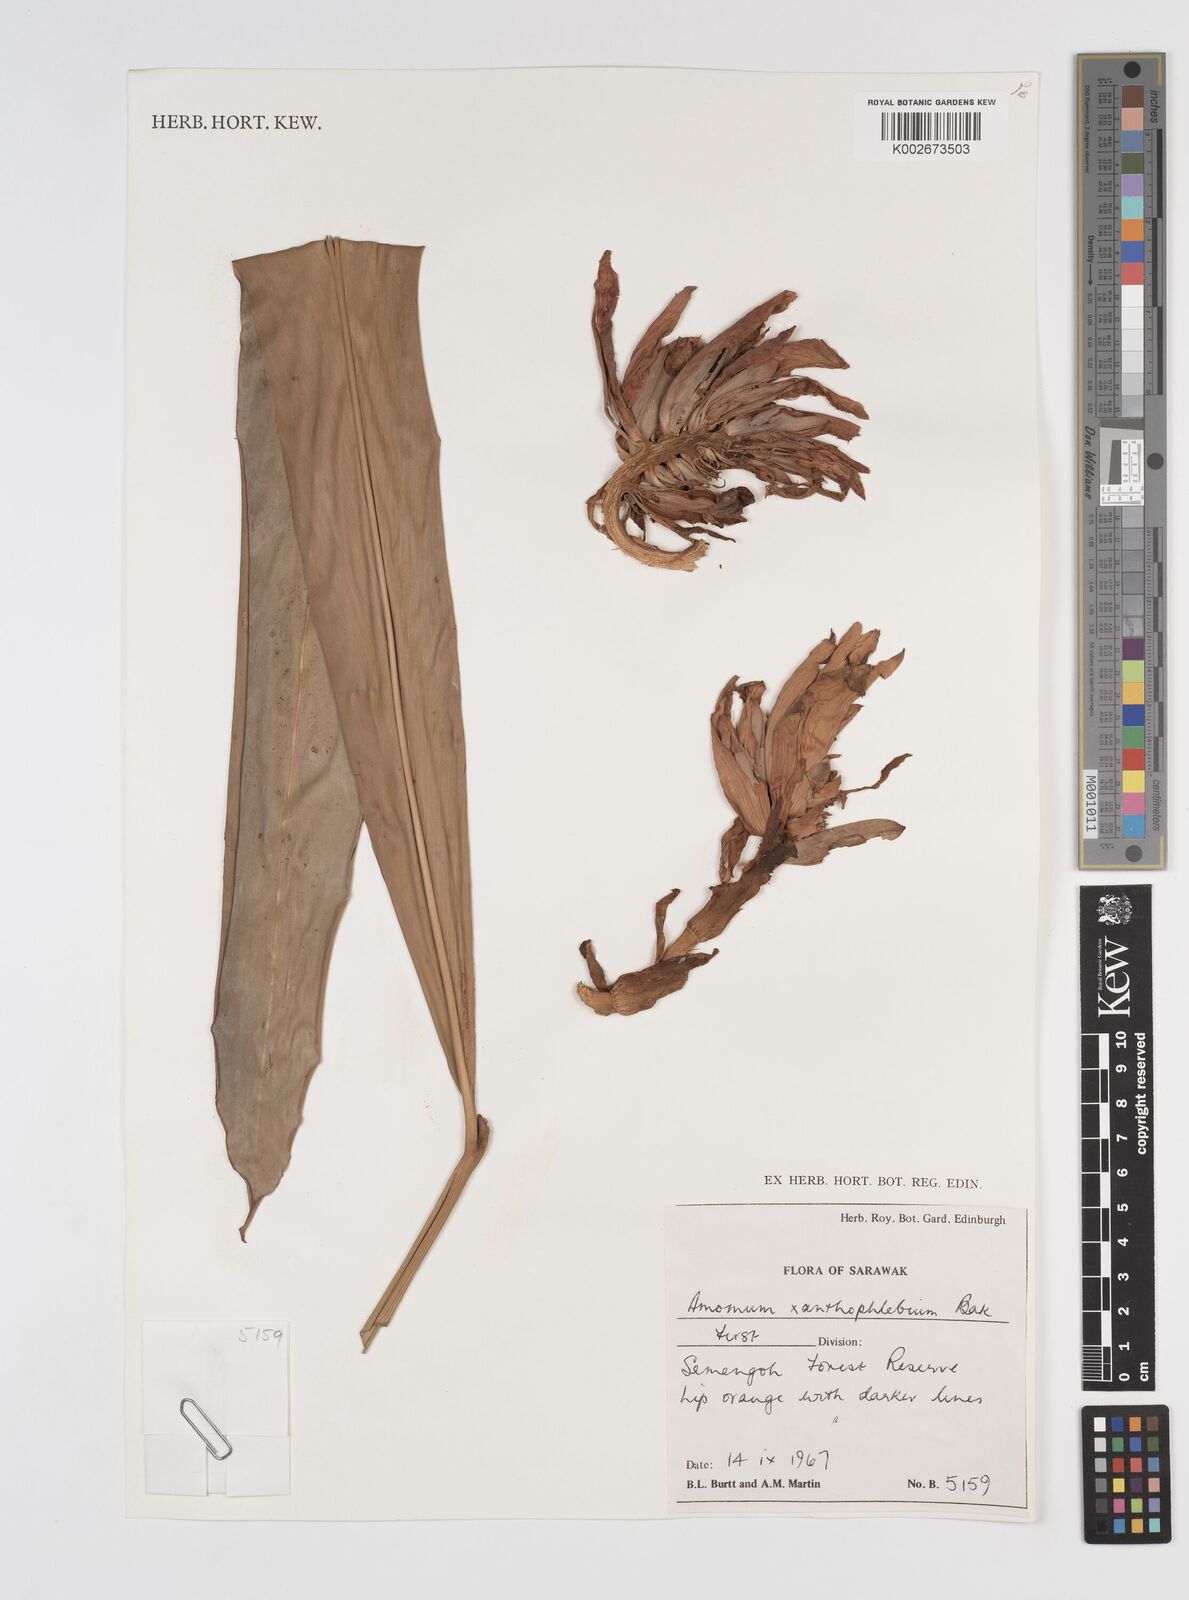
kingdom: Plantae
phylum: Tracheophyta
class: Liliopsida
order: Zingiberales
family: Zingiberaceae
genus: Conamomum
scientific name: Conamomum xanthophlebium
